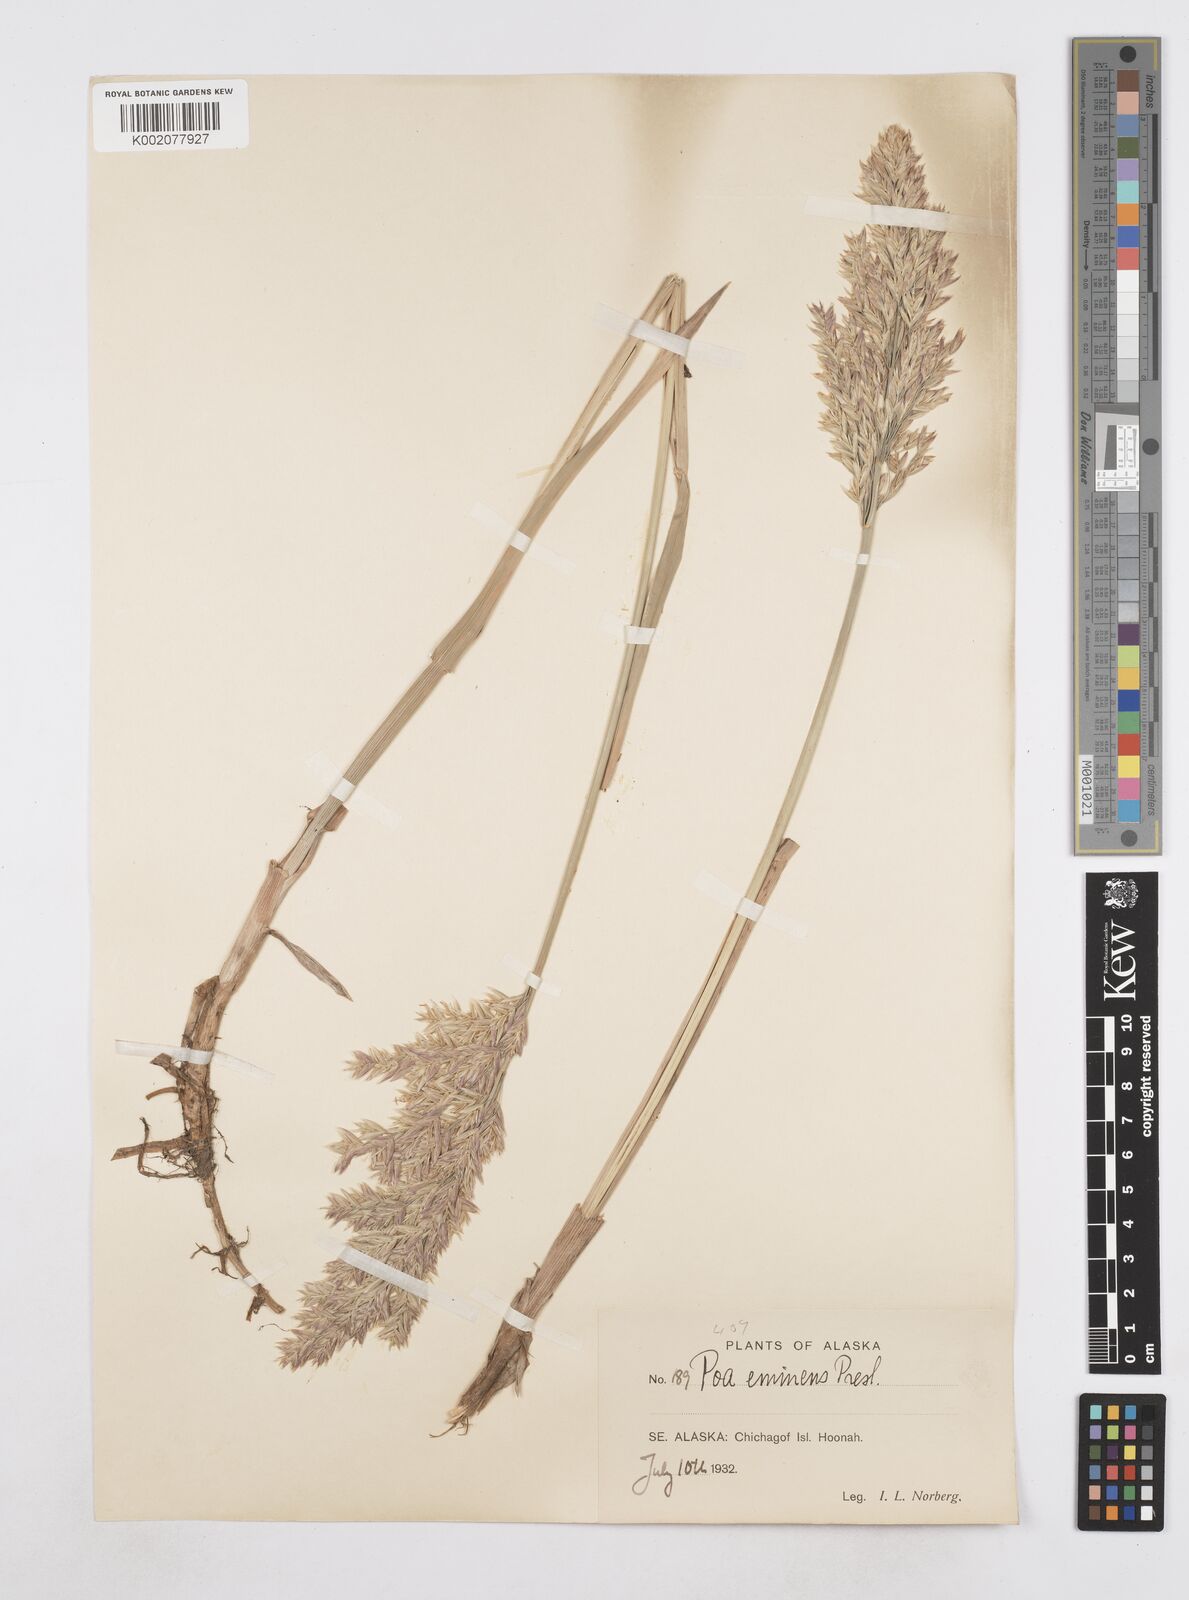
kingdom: Plantae
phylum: Tracheophyta
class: Liliopsida
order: Poales
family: Poaceae
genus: Arctopoa
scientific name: Arctopoa eminens
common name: Eminent bluegrass
